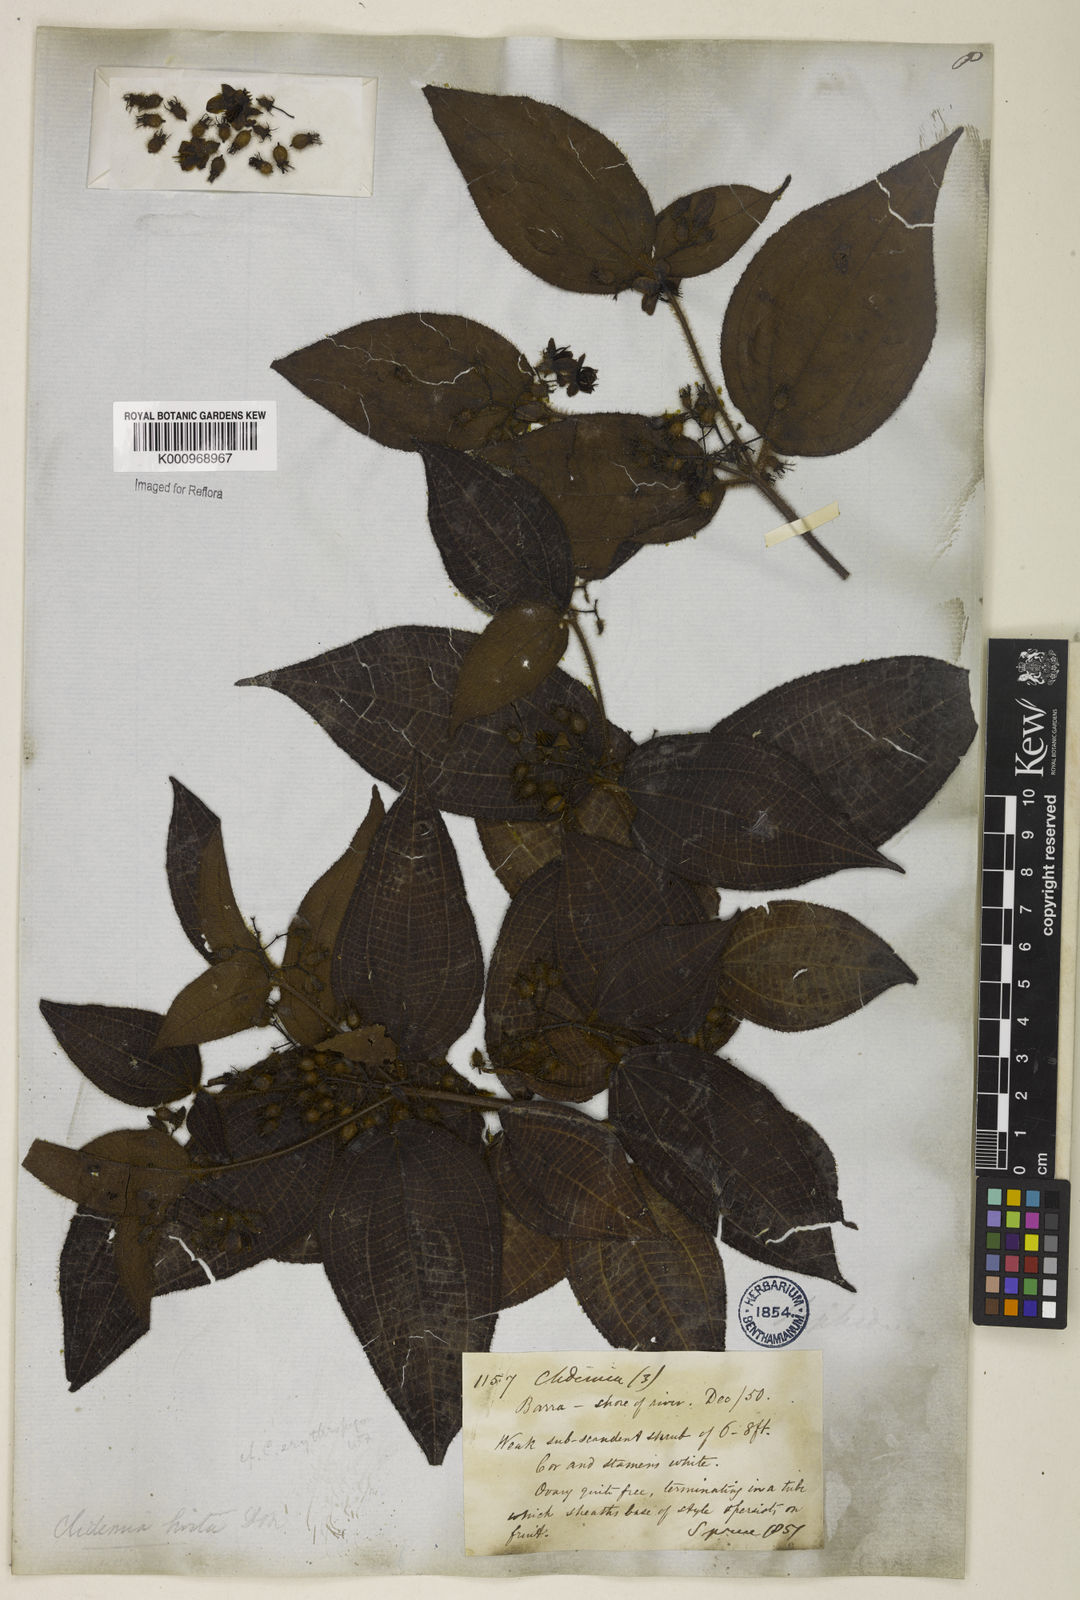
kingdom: Plantae
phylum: Tracheophyta
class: Magnoliopsida
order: Myrtales
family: Melastomataceae
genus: Miconia
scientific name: Miconia crenata
